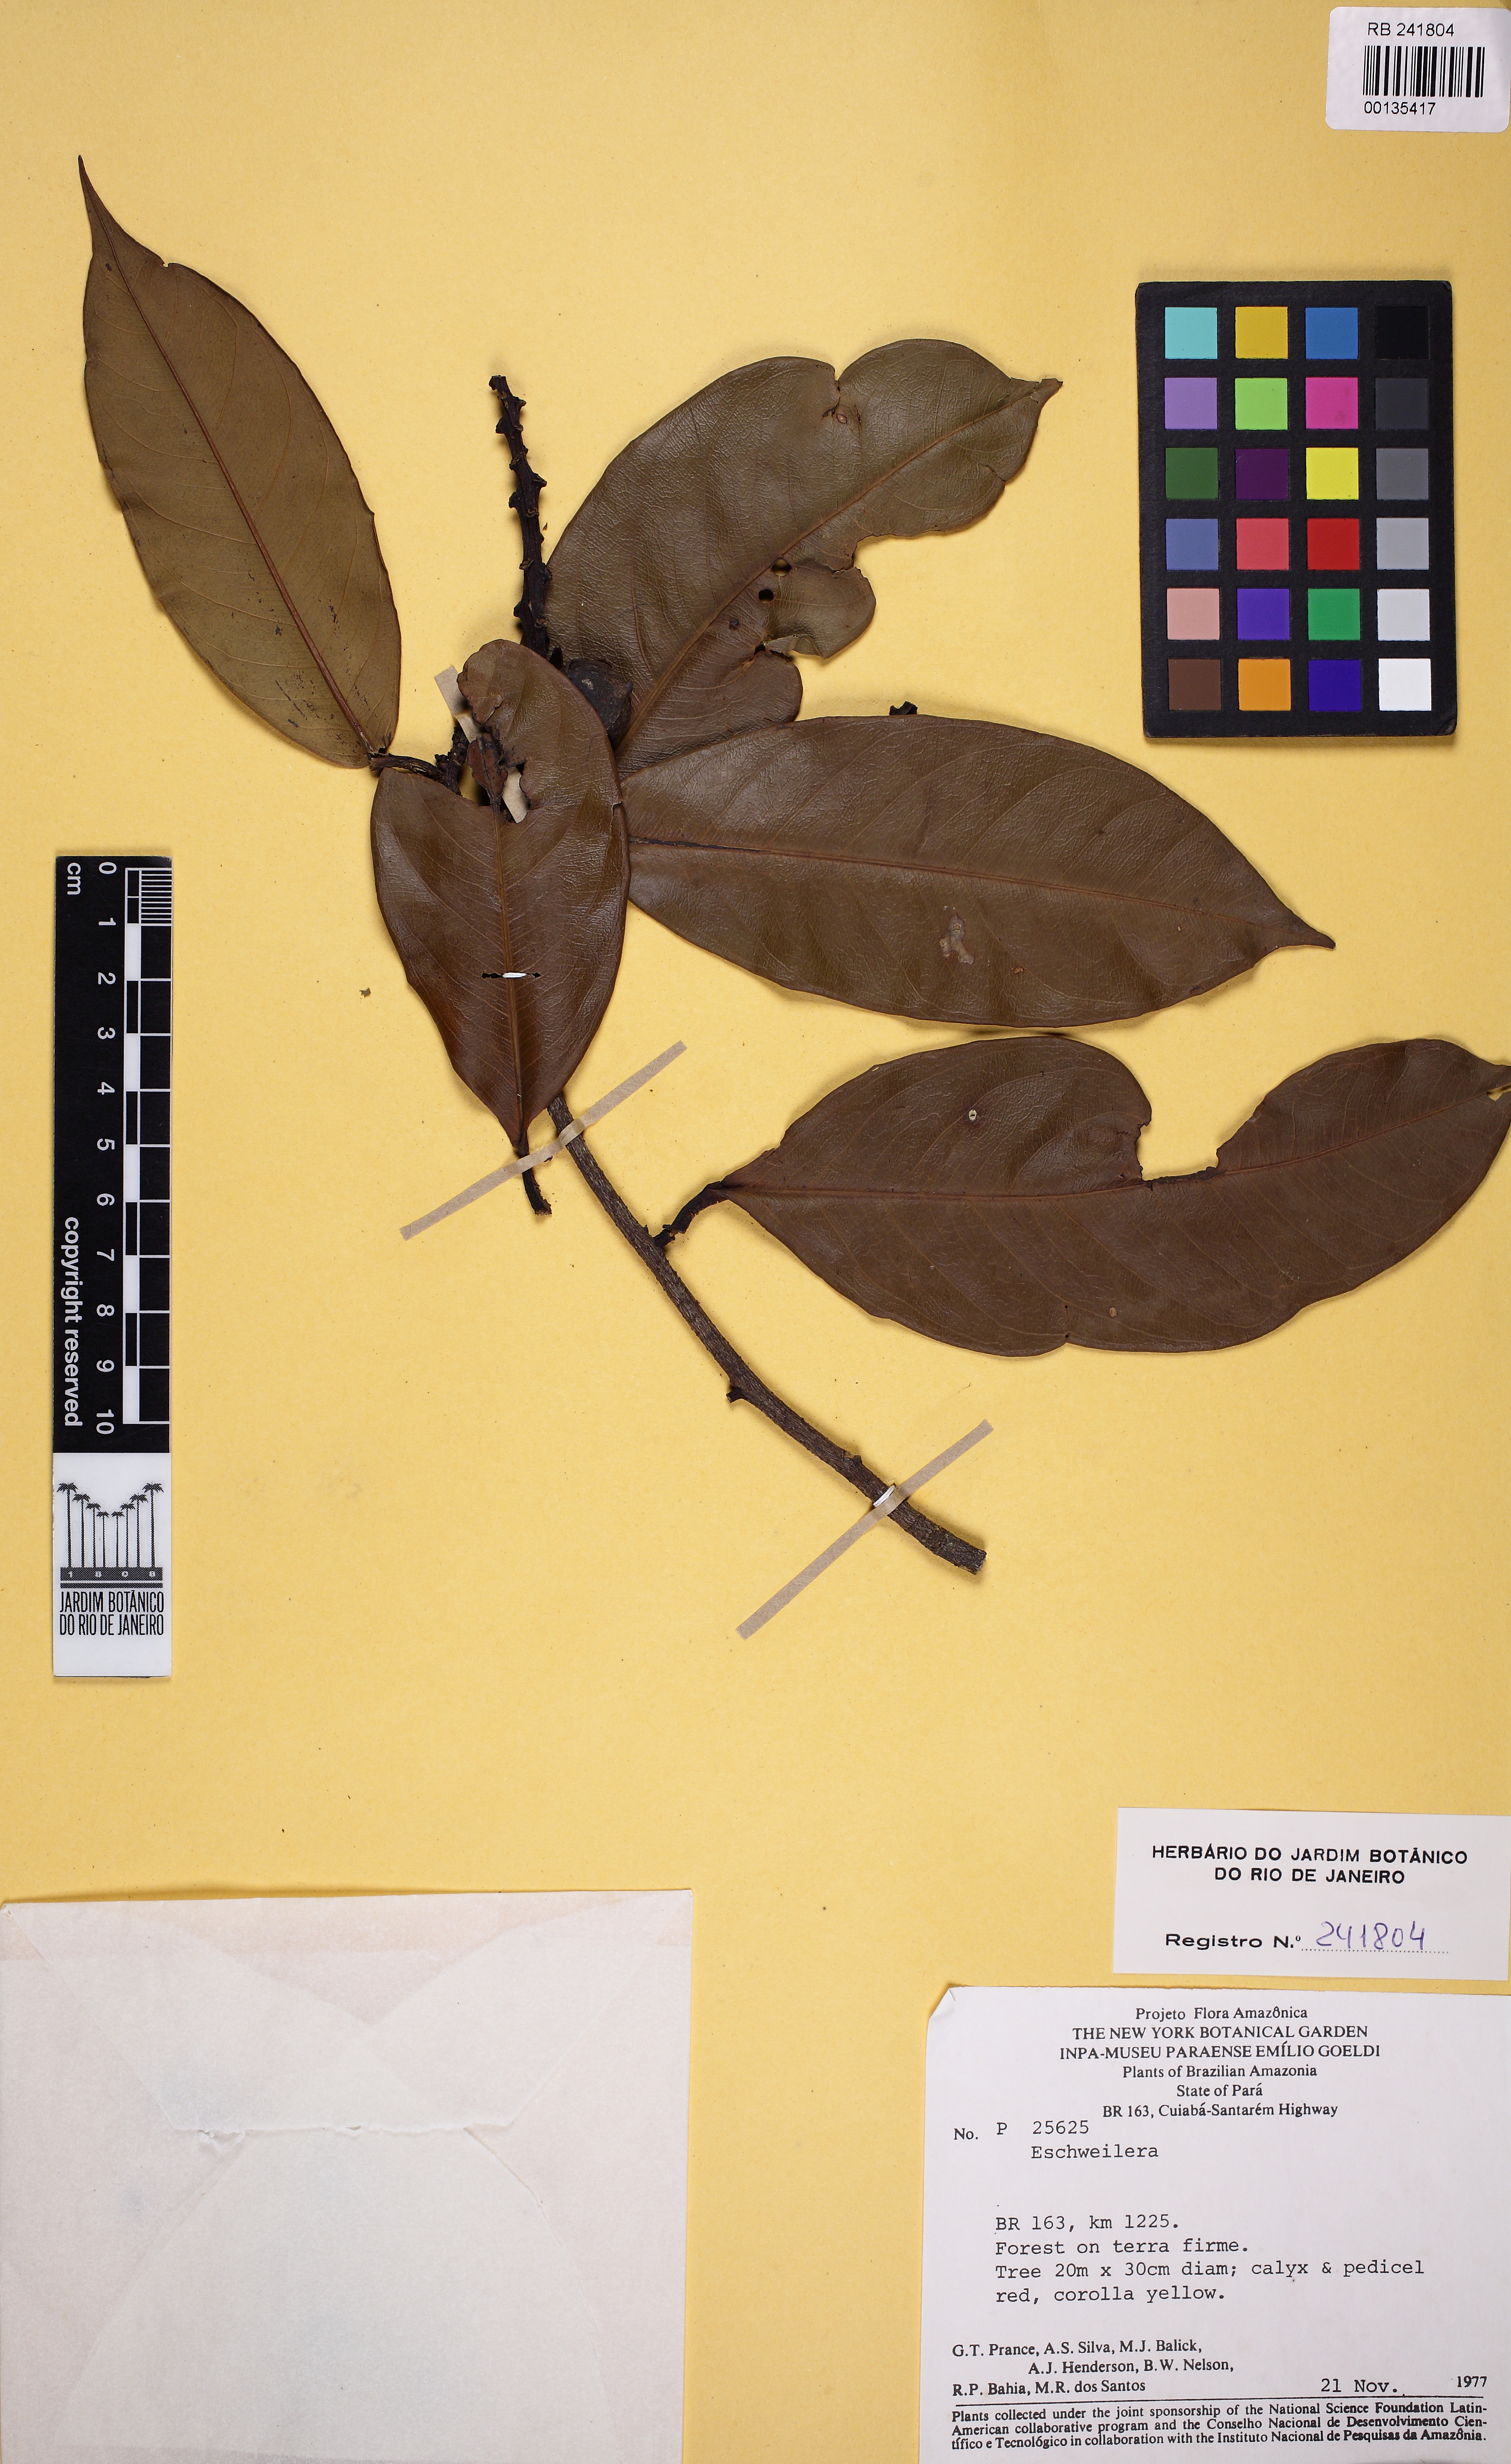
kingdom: Plantae
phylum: Tracheophyta
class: Magnoliopsida
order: Ericales
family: Lecythidaceae
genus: Eschweilera
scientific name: Eschweilera truncata
